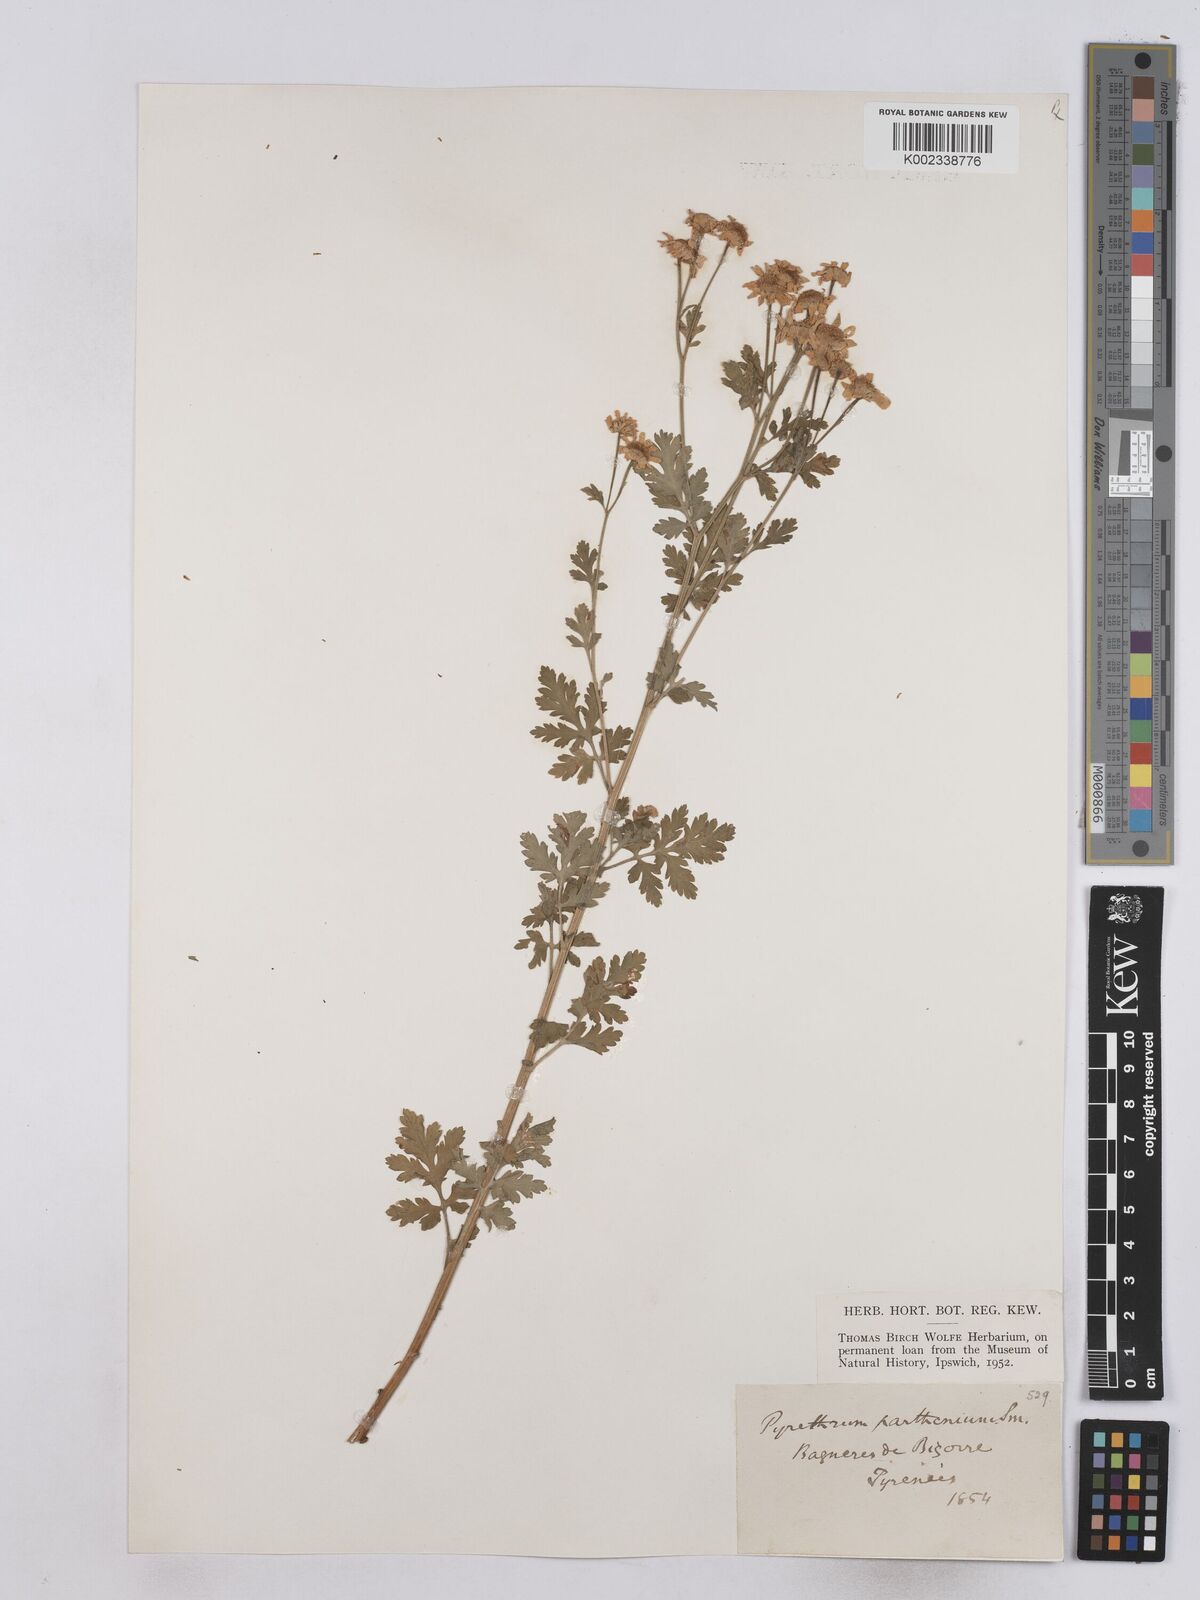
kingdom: Plantae
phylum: Tracheophyta
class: Magnoliopsida
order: Asterales
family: Asteraceae
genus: Tanacetum
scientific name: Tanacetum parthenium
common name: Feverfew
